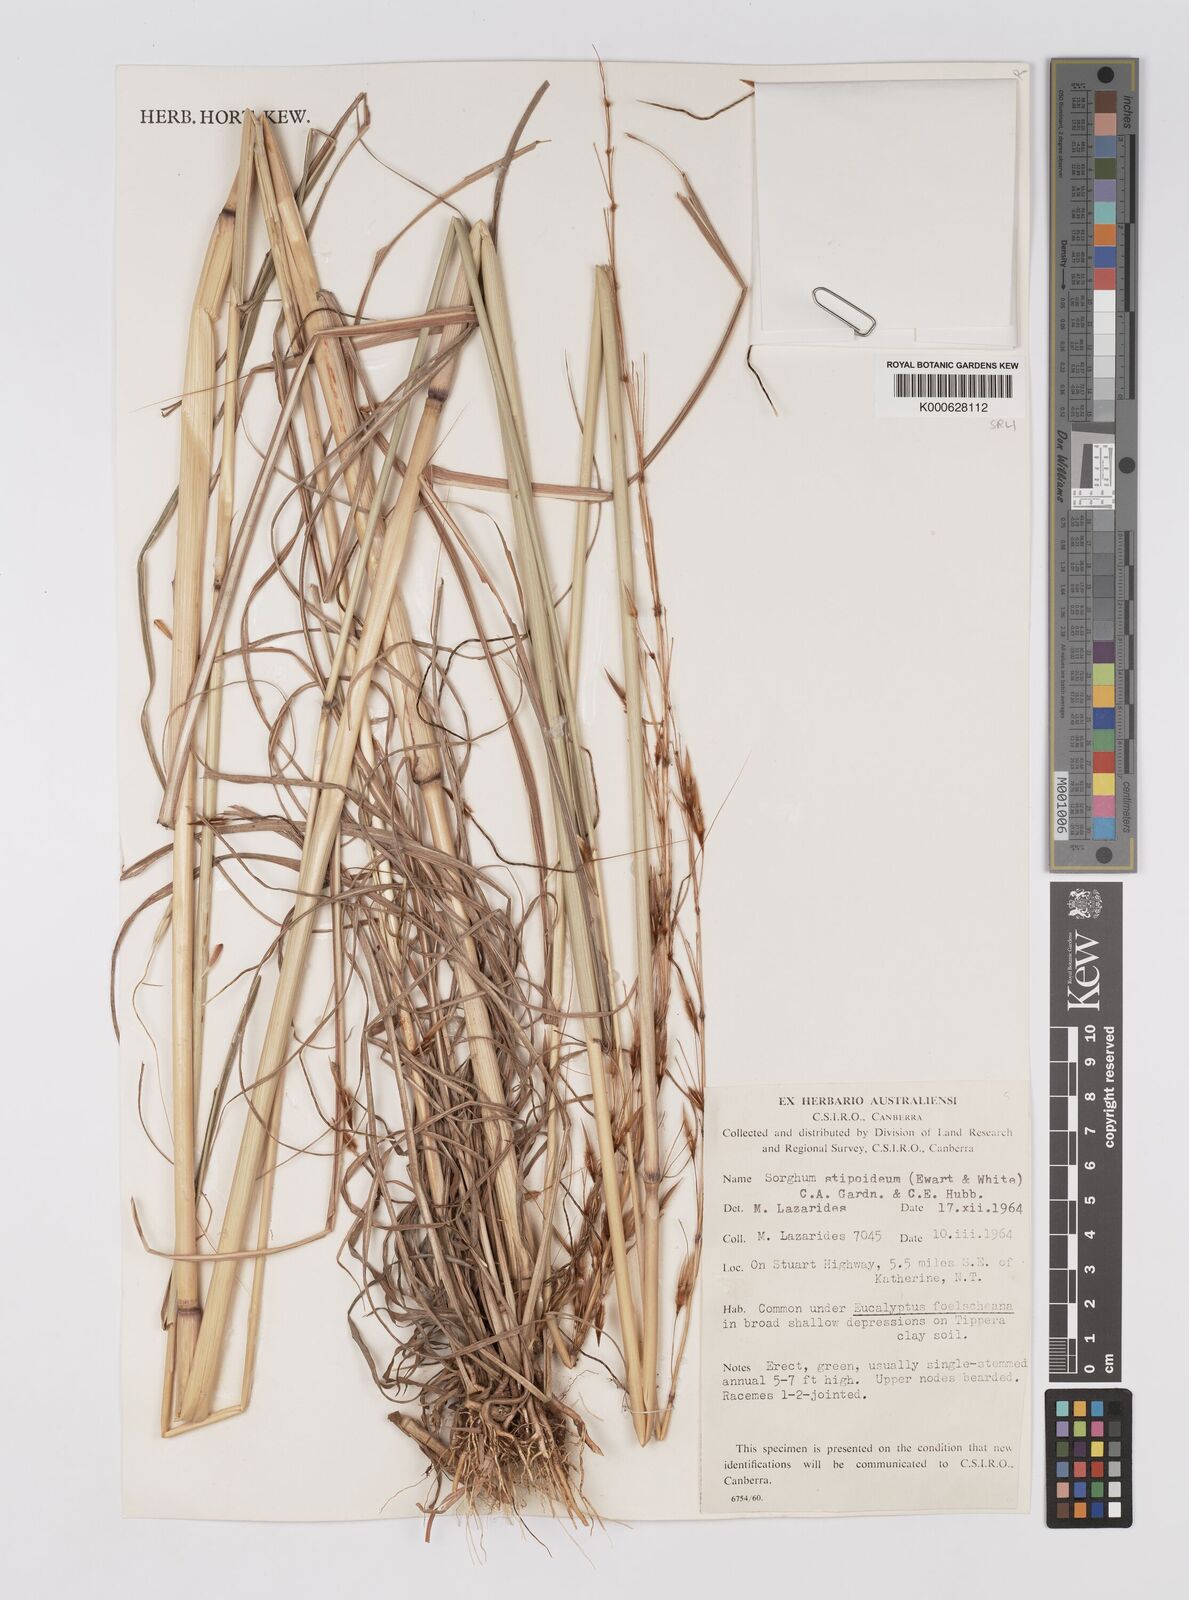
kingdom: Plantae
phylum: Tracheophyta
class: Liliopsida
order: Poales
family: Poaceae
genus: Sarga
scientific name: Sarga stipoidea
